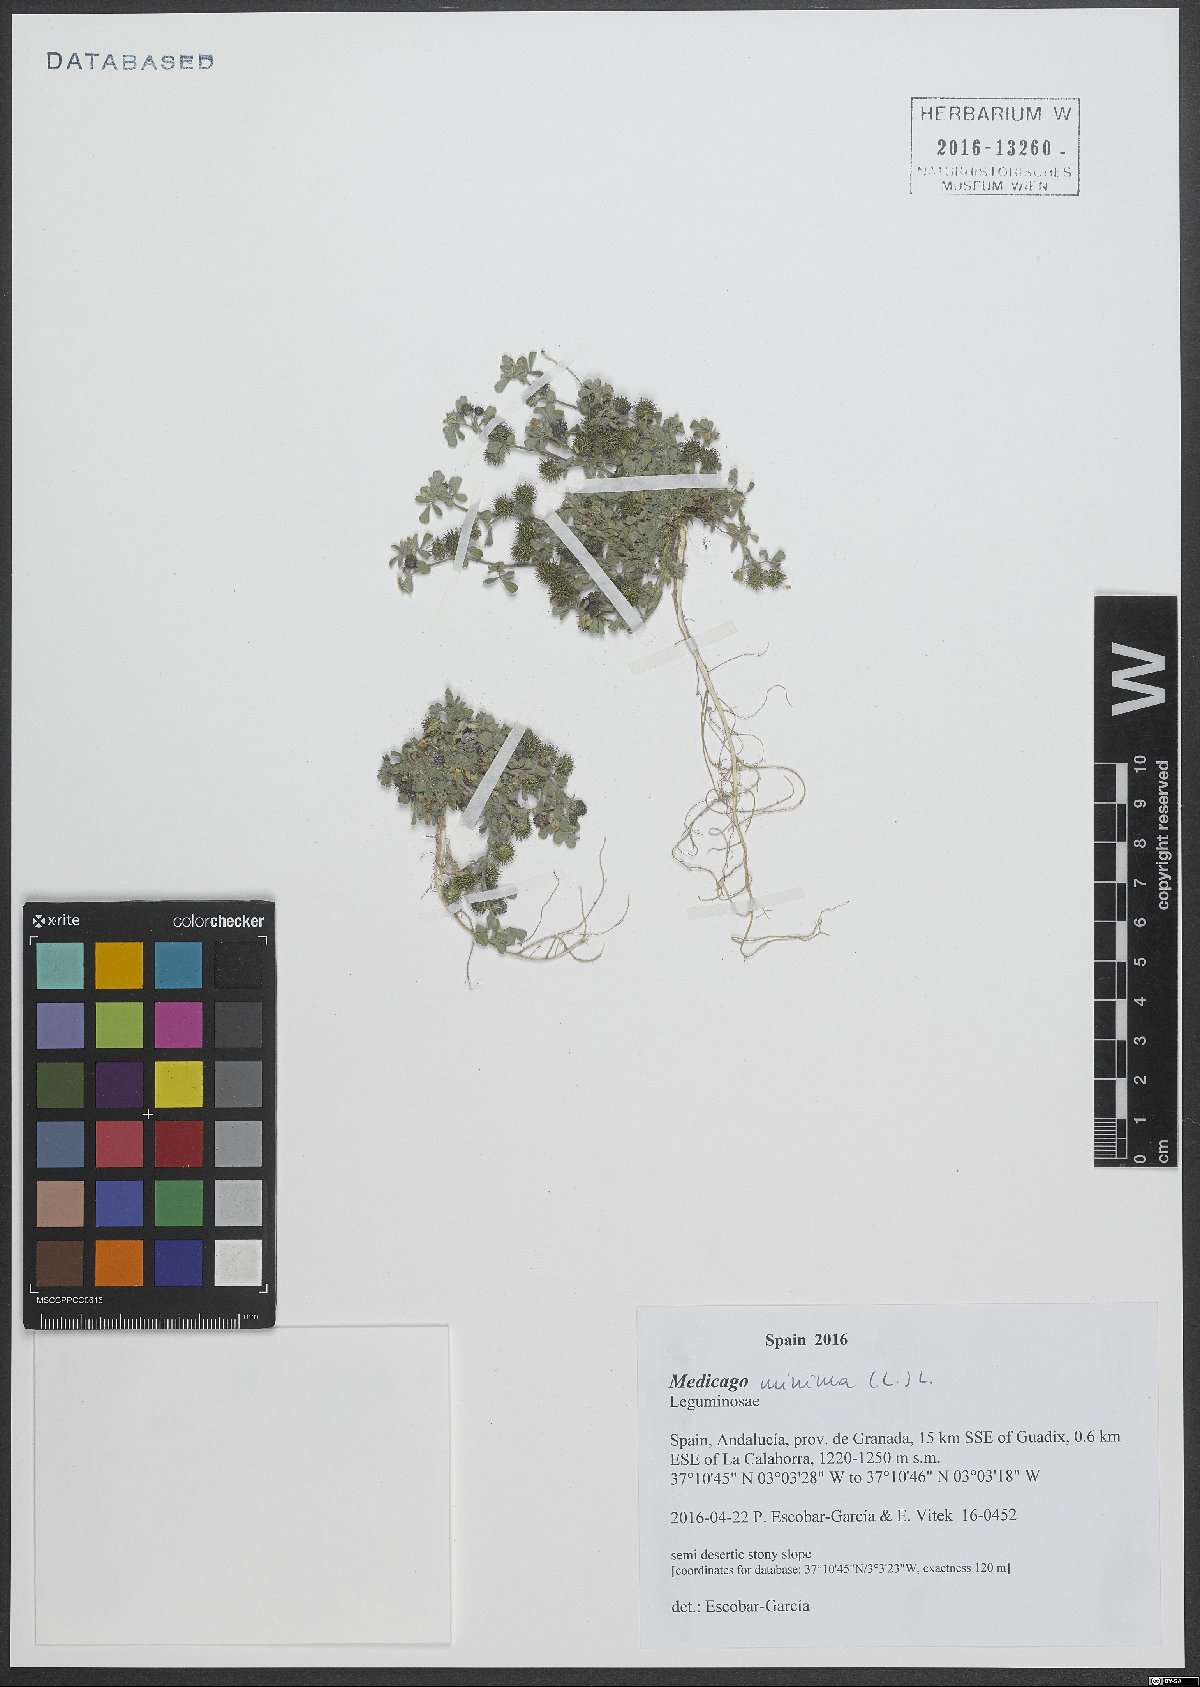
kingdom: Plantae
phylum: Tracheophyta
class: Magnoliopsida
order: Fabales
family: Fabaceae
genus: Medicago
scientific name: Medicago minima
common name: Little bur-clover
